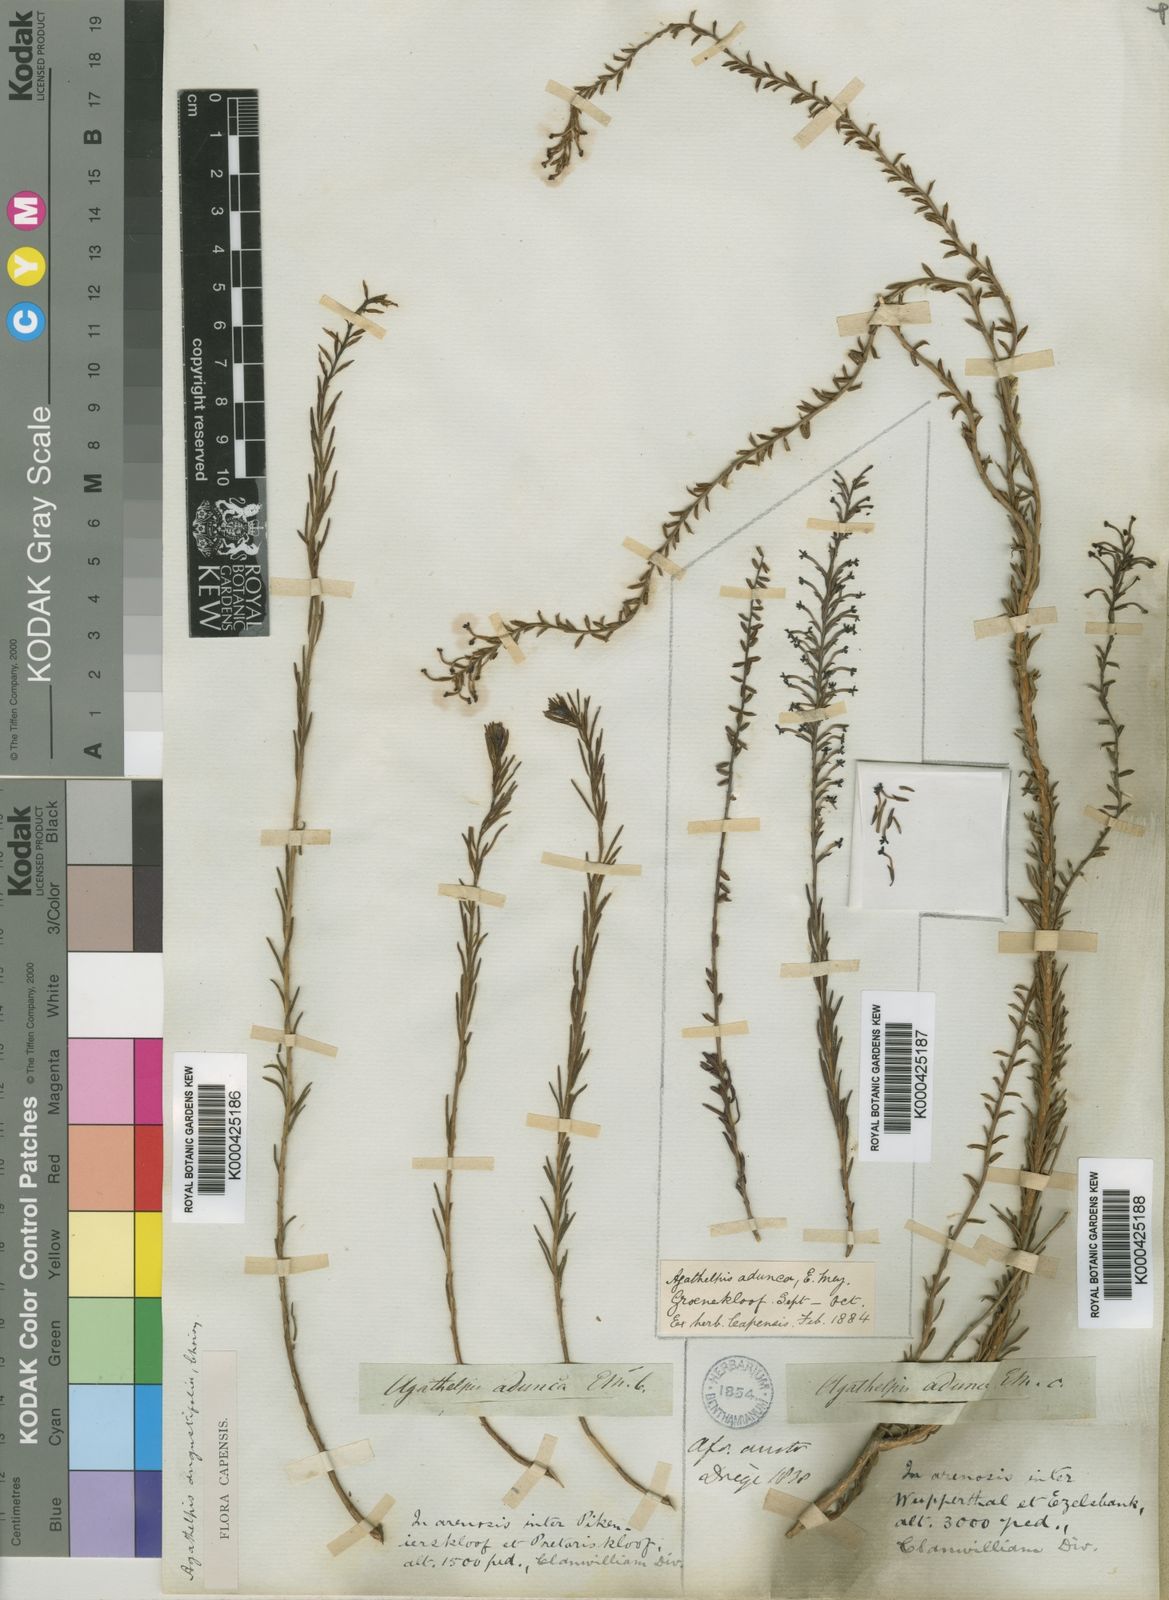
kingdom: Plantae
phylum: Tracheophyta
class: Magnoliopsida
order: Lamiales
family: Scrophulariaceae
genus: Microdon
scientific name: Microdon dubius
